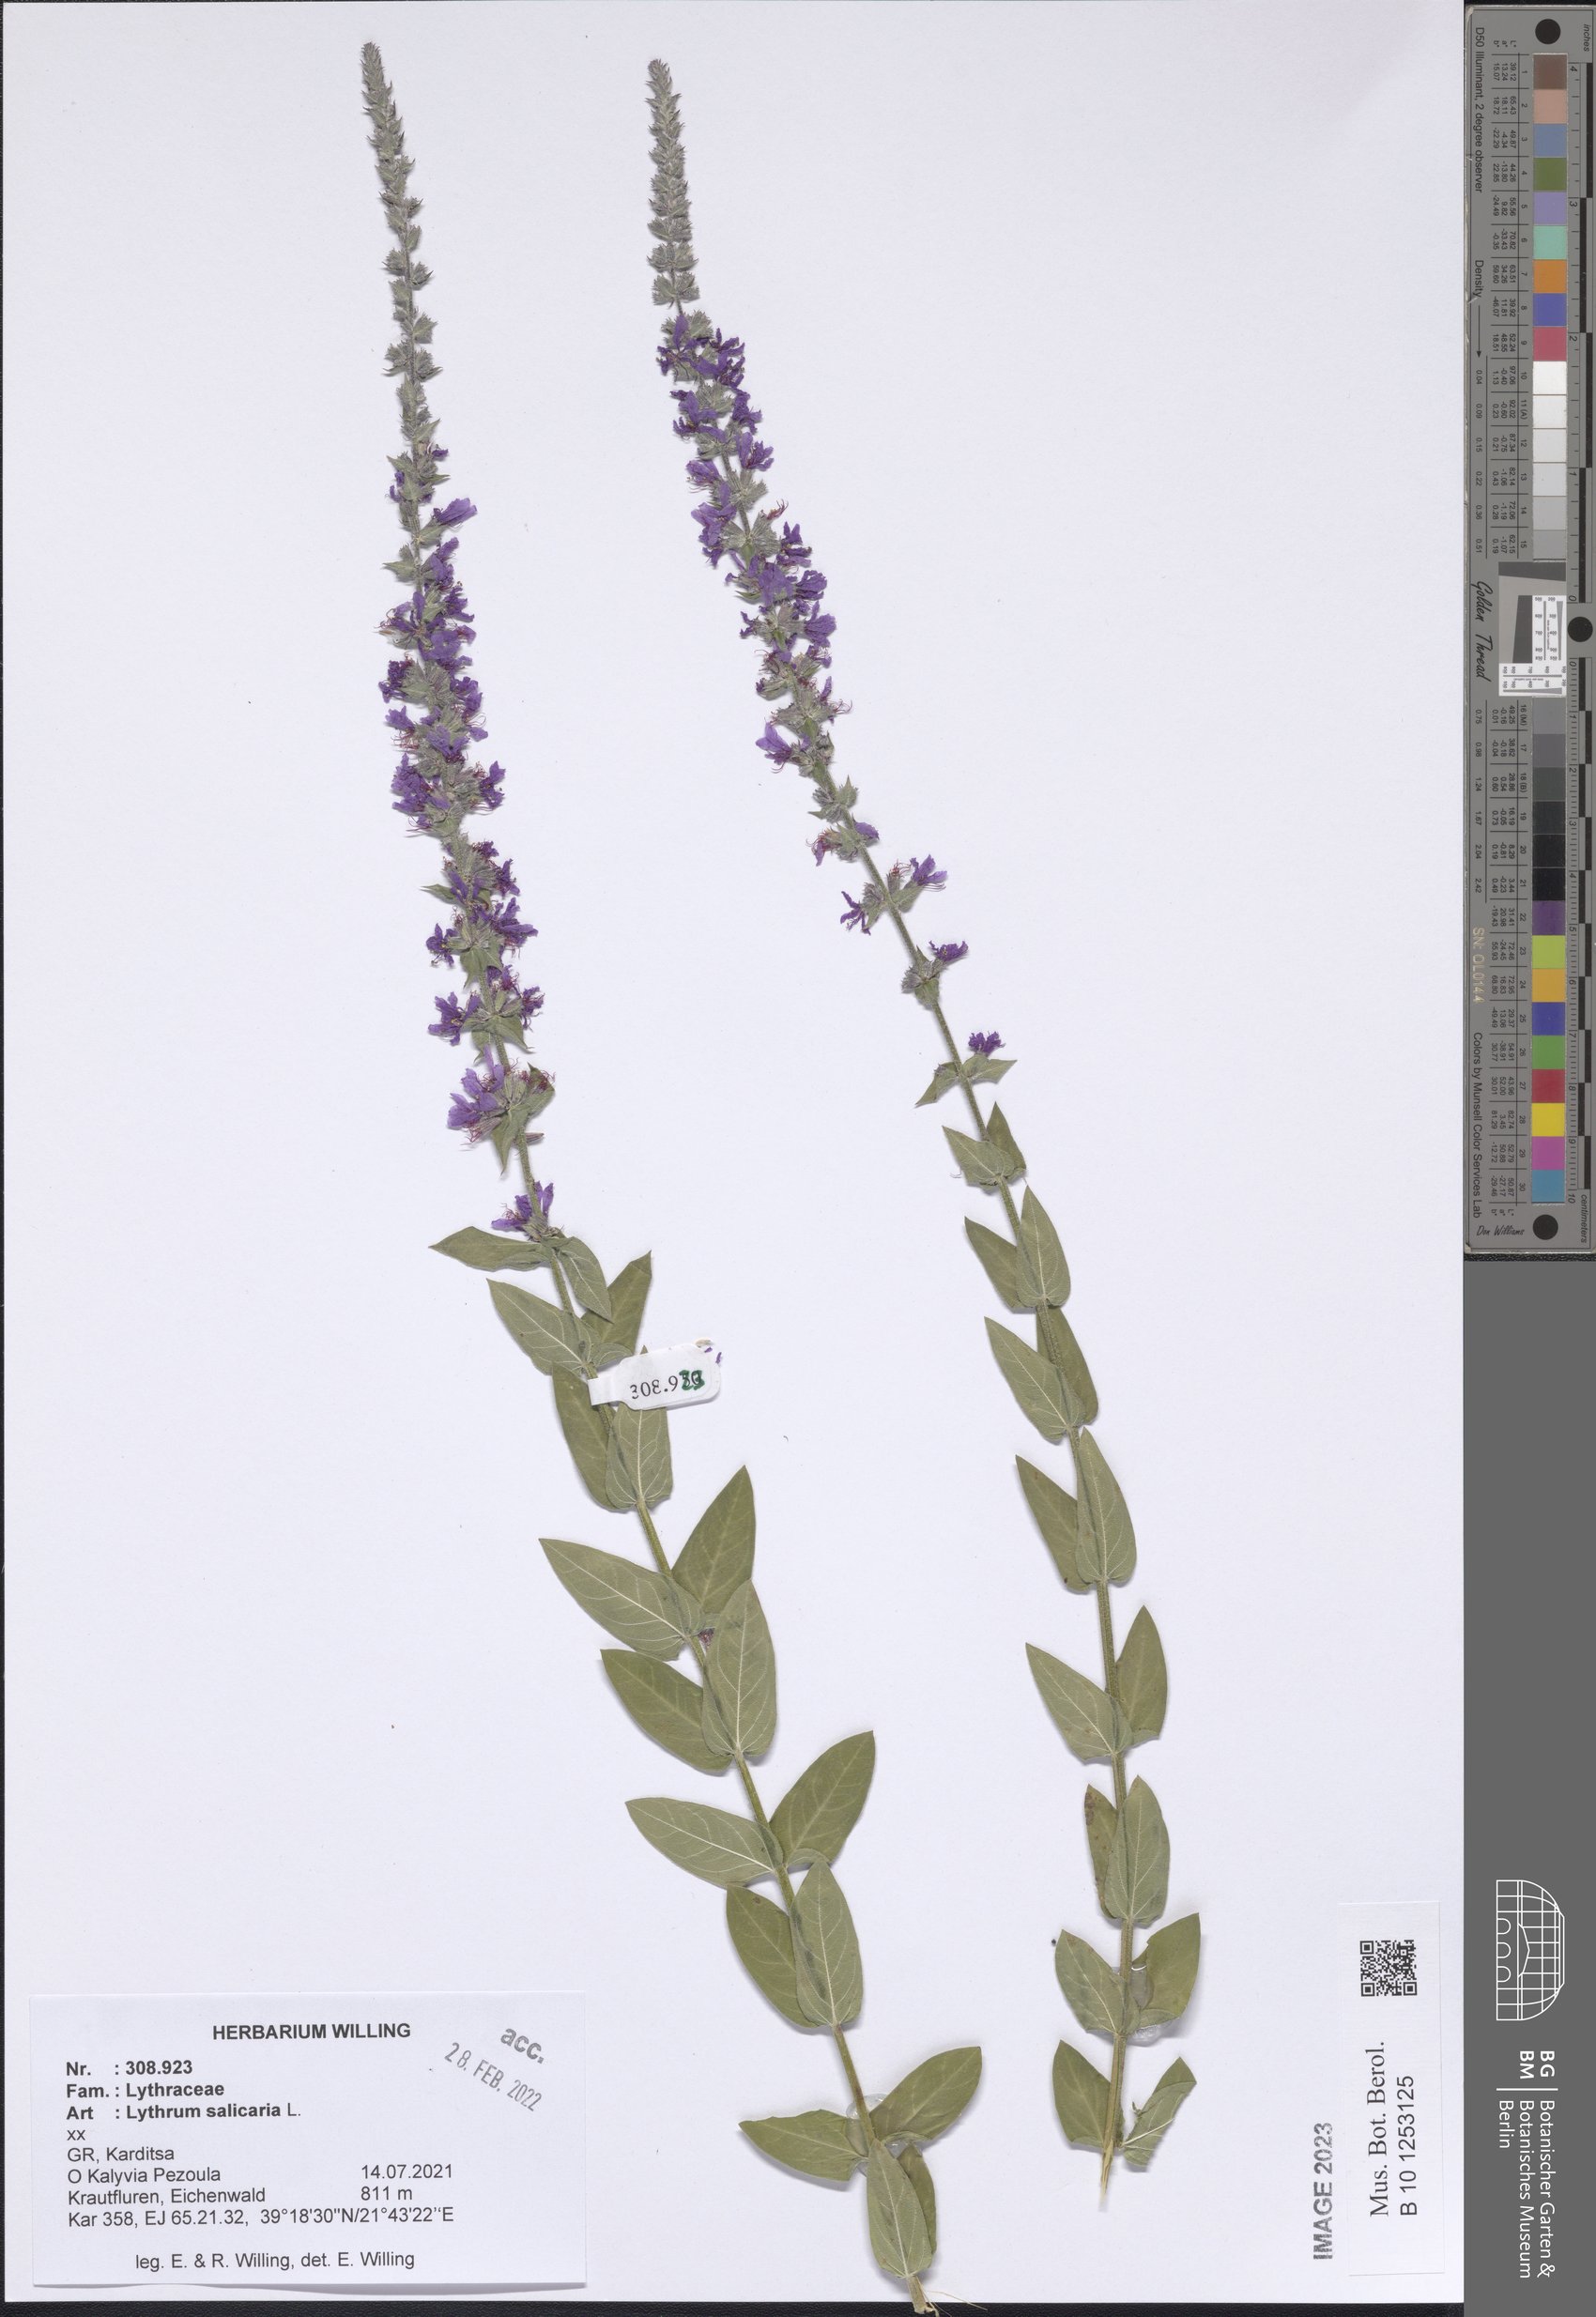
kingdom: Plantae
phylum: Tracheophyta
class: Magnoliopsida
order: Myrtales
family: Lythraceae
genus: Lythrum
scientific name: Lythrum salicaria
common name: Purple loosestrife
